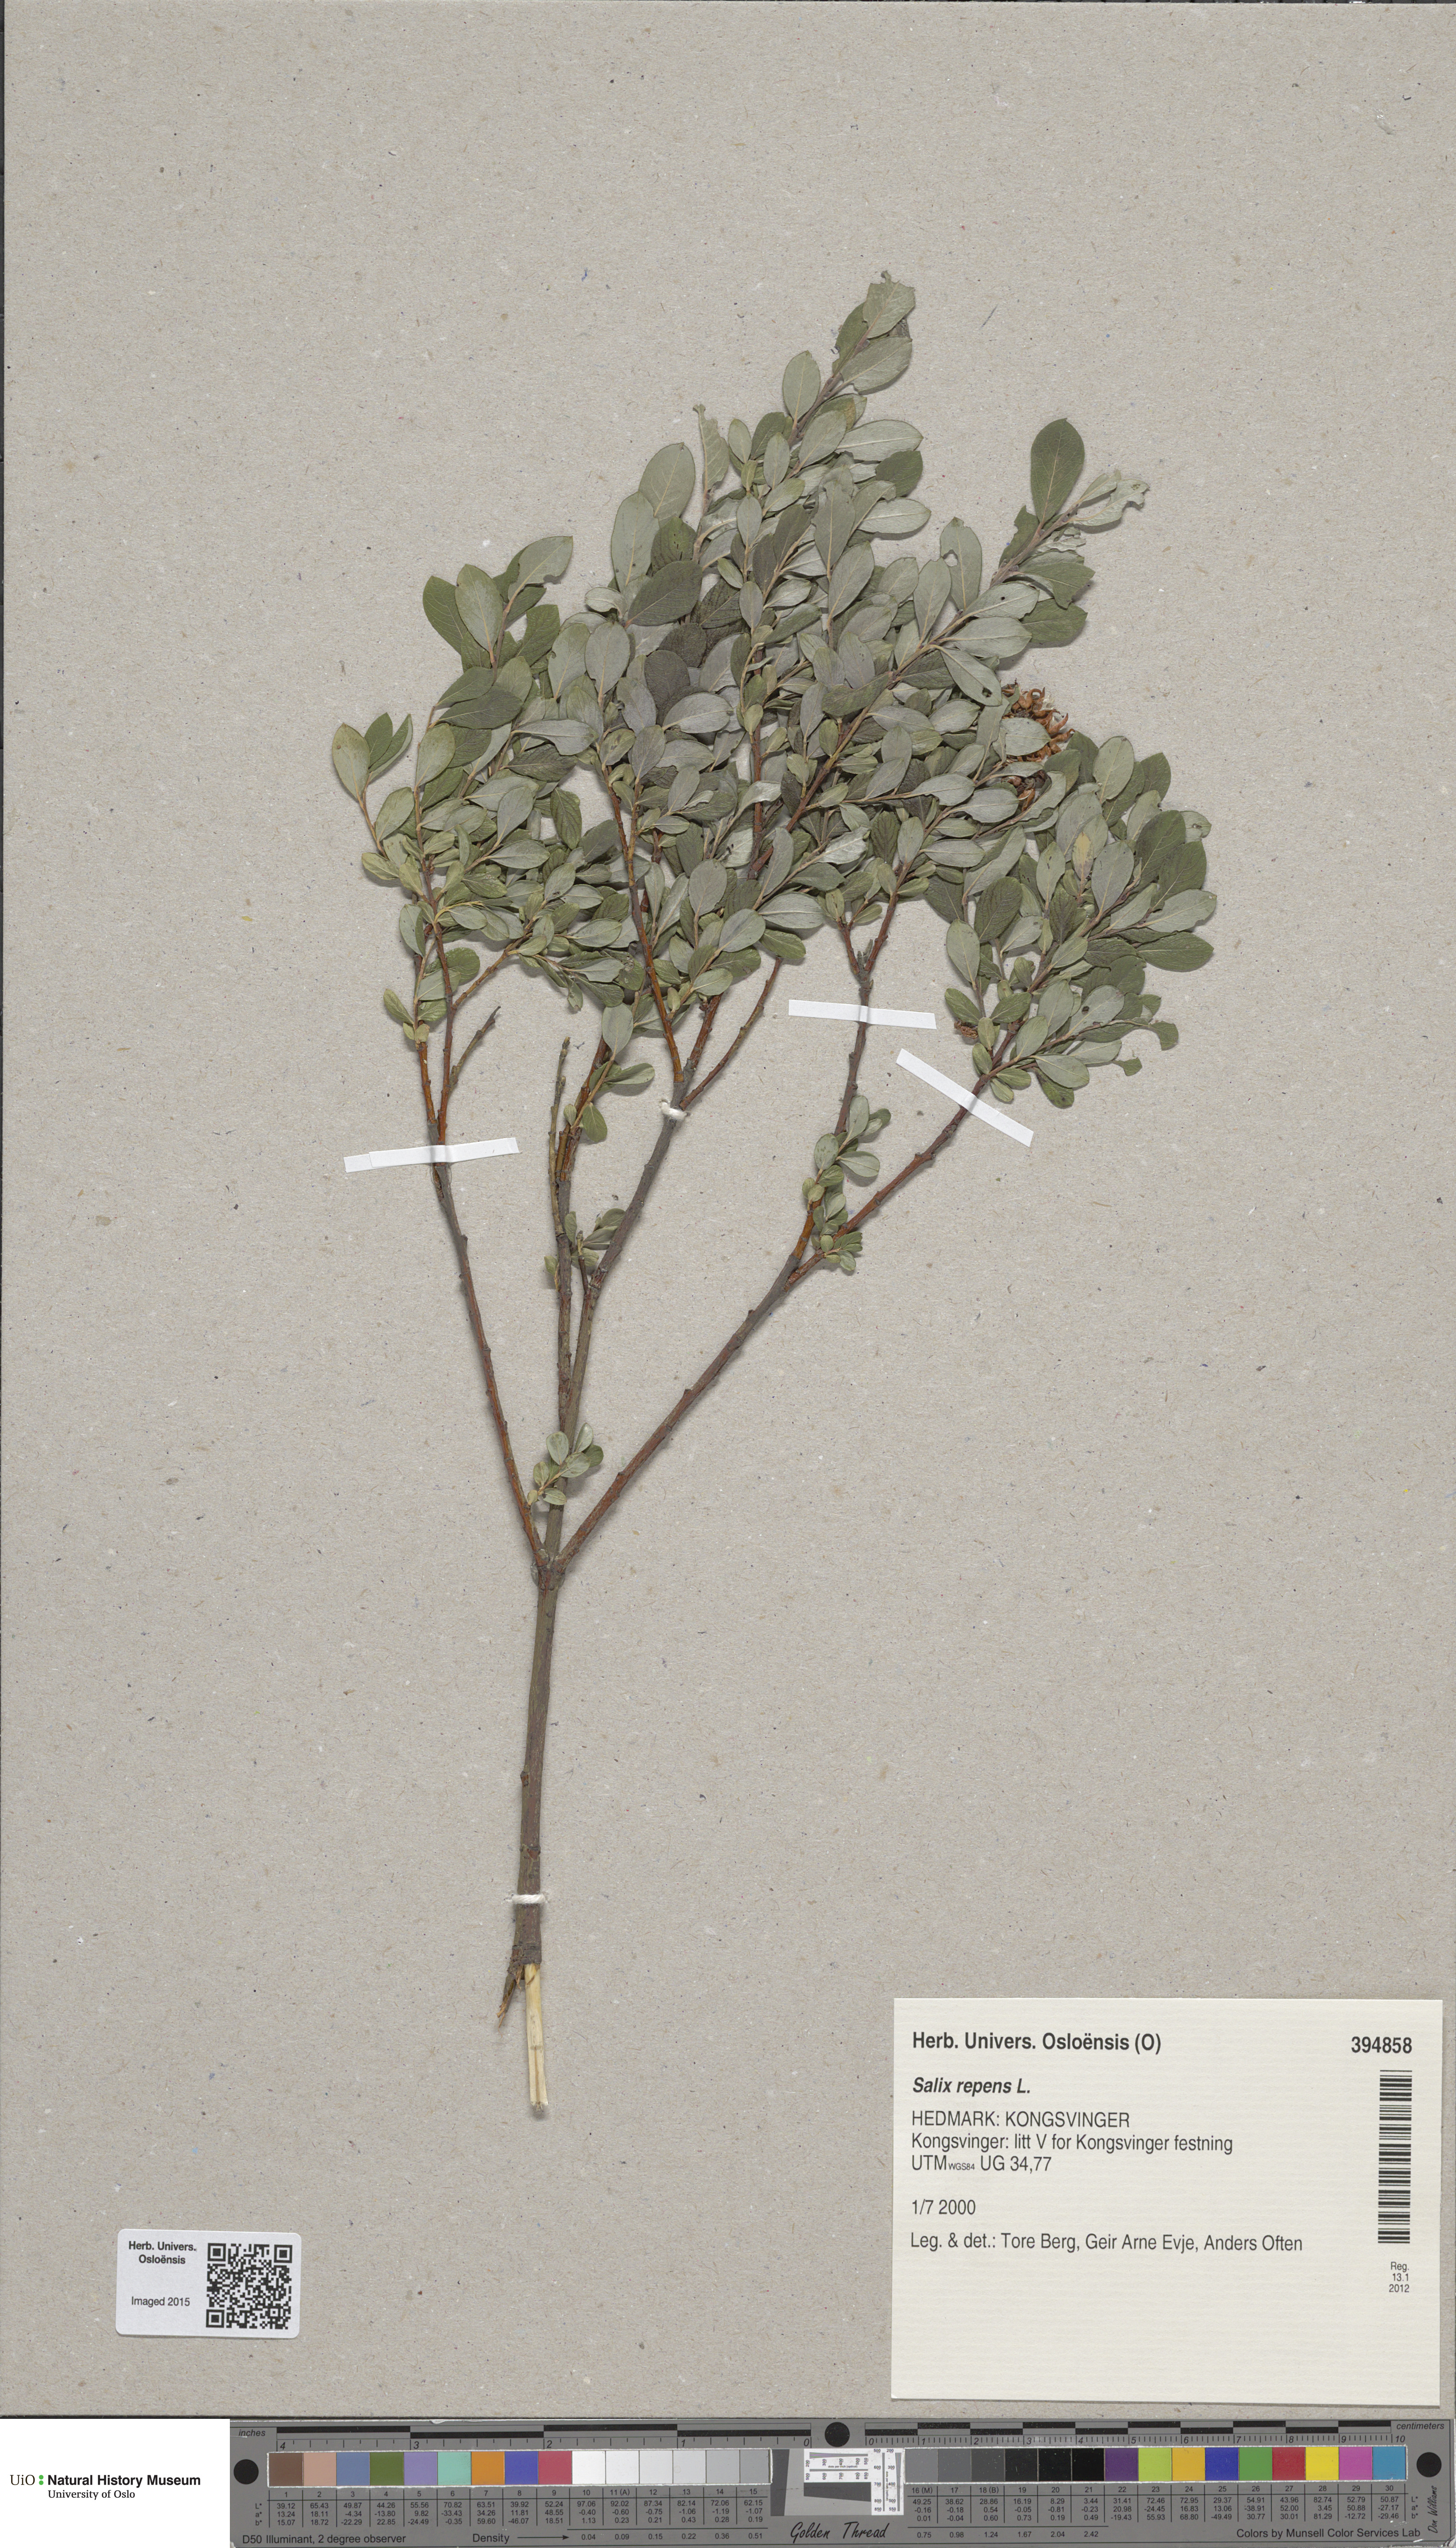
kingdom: Plantae
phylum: Tracheophyta
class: Magnoliopsida
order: Malpighiales
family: Salicaceae
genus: Salix
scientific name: Salix repens
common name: Creeping willow
